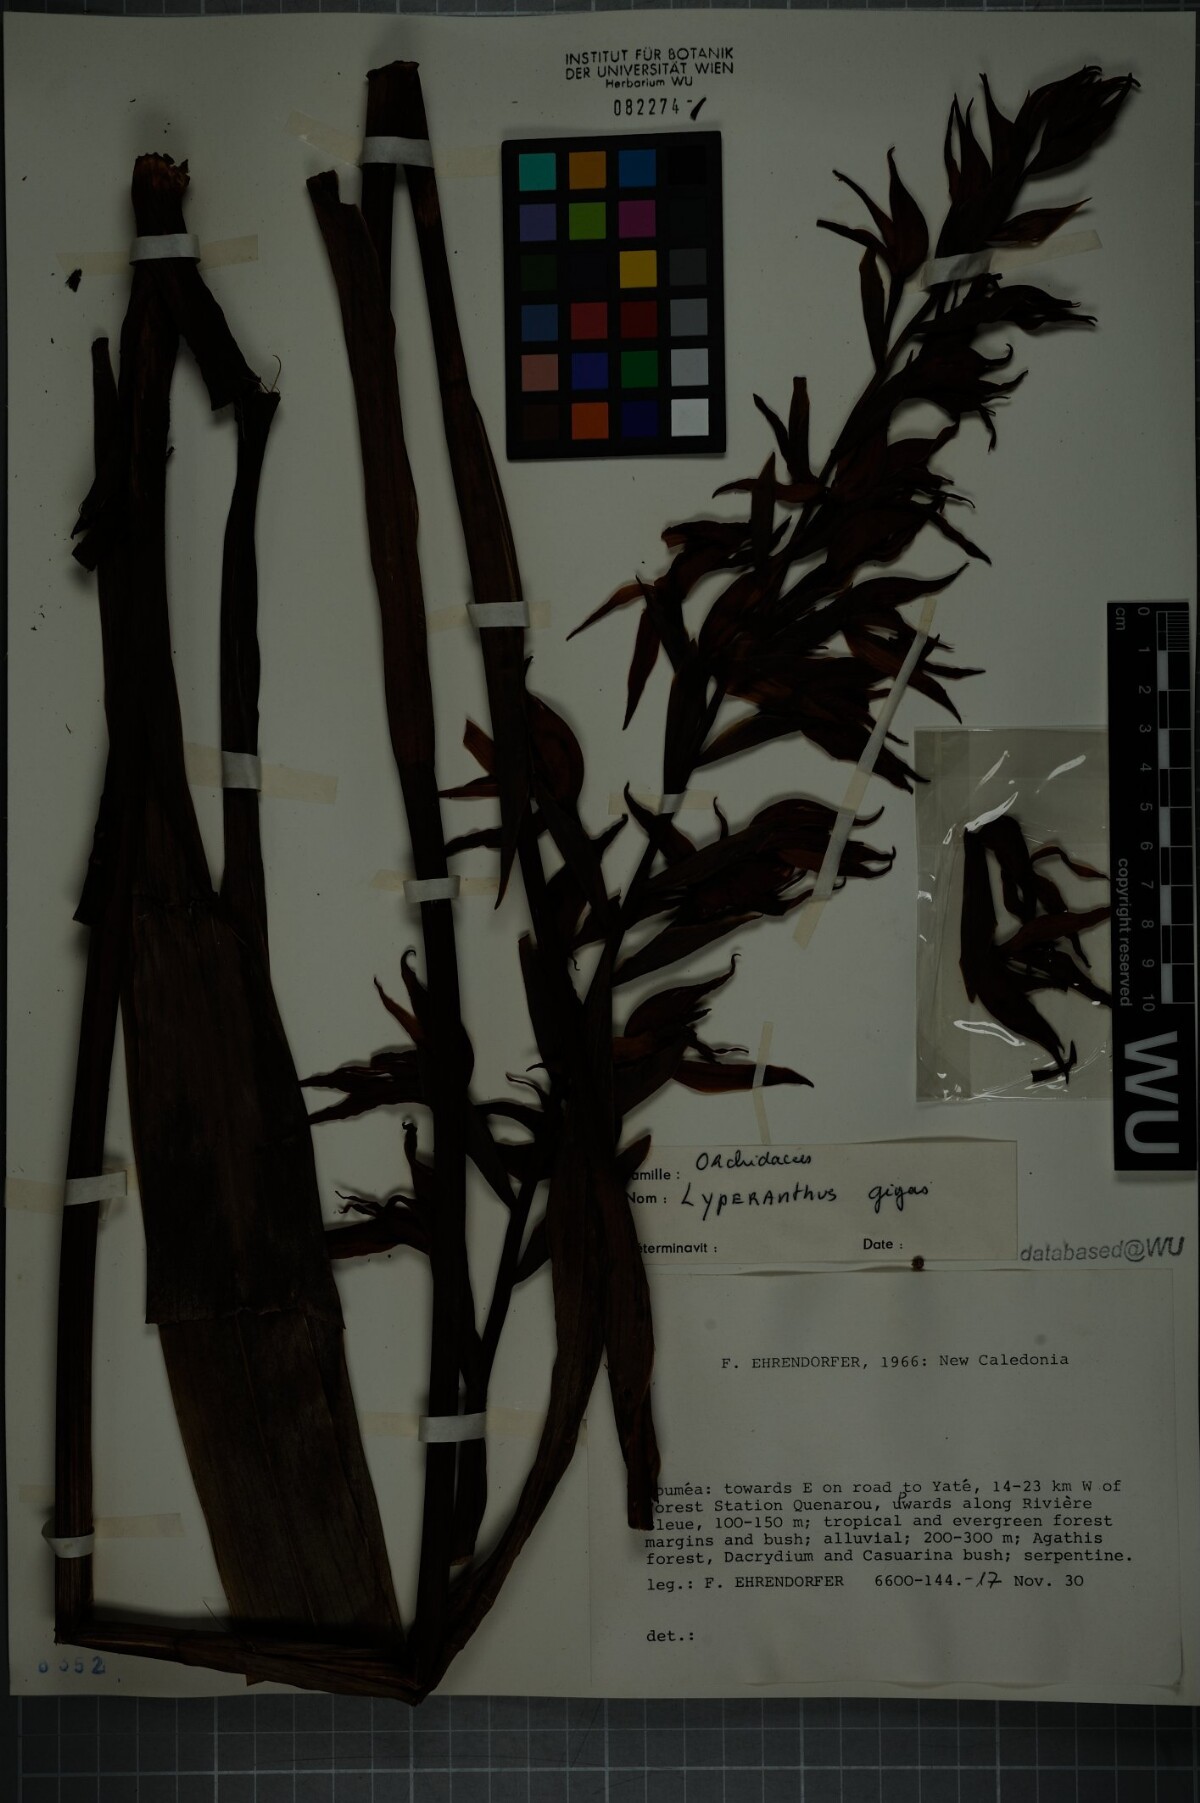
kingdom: Plantae
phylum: Tracheophyta
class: Liliopsida
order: Asparagales
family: Orchidaceae
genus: Megastylis
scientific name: Megastylis gigas
